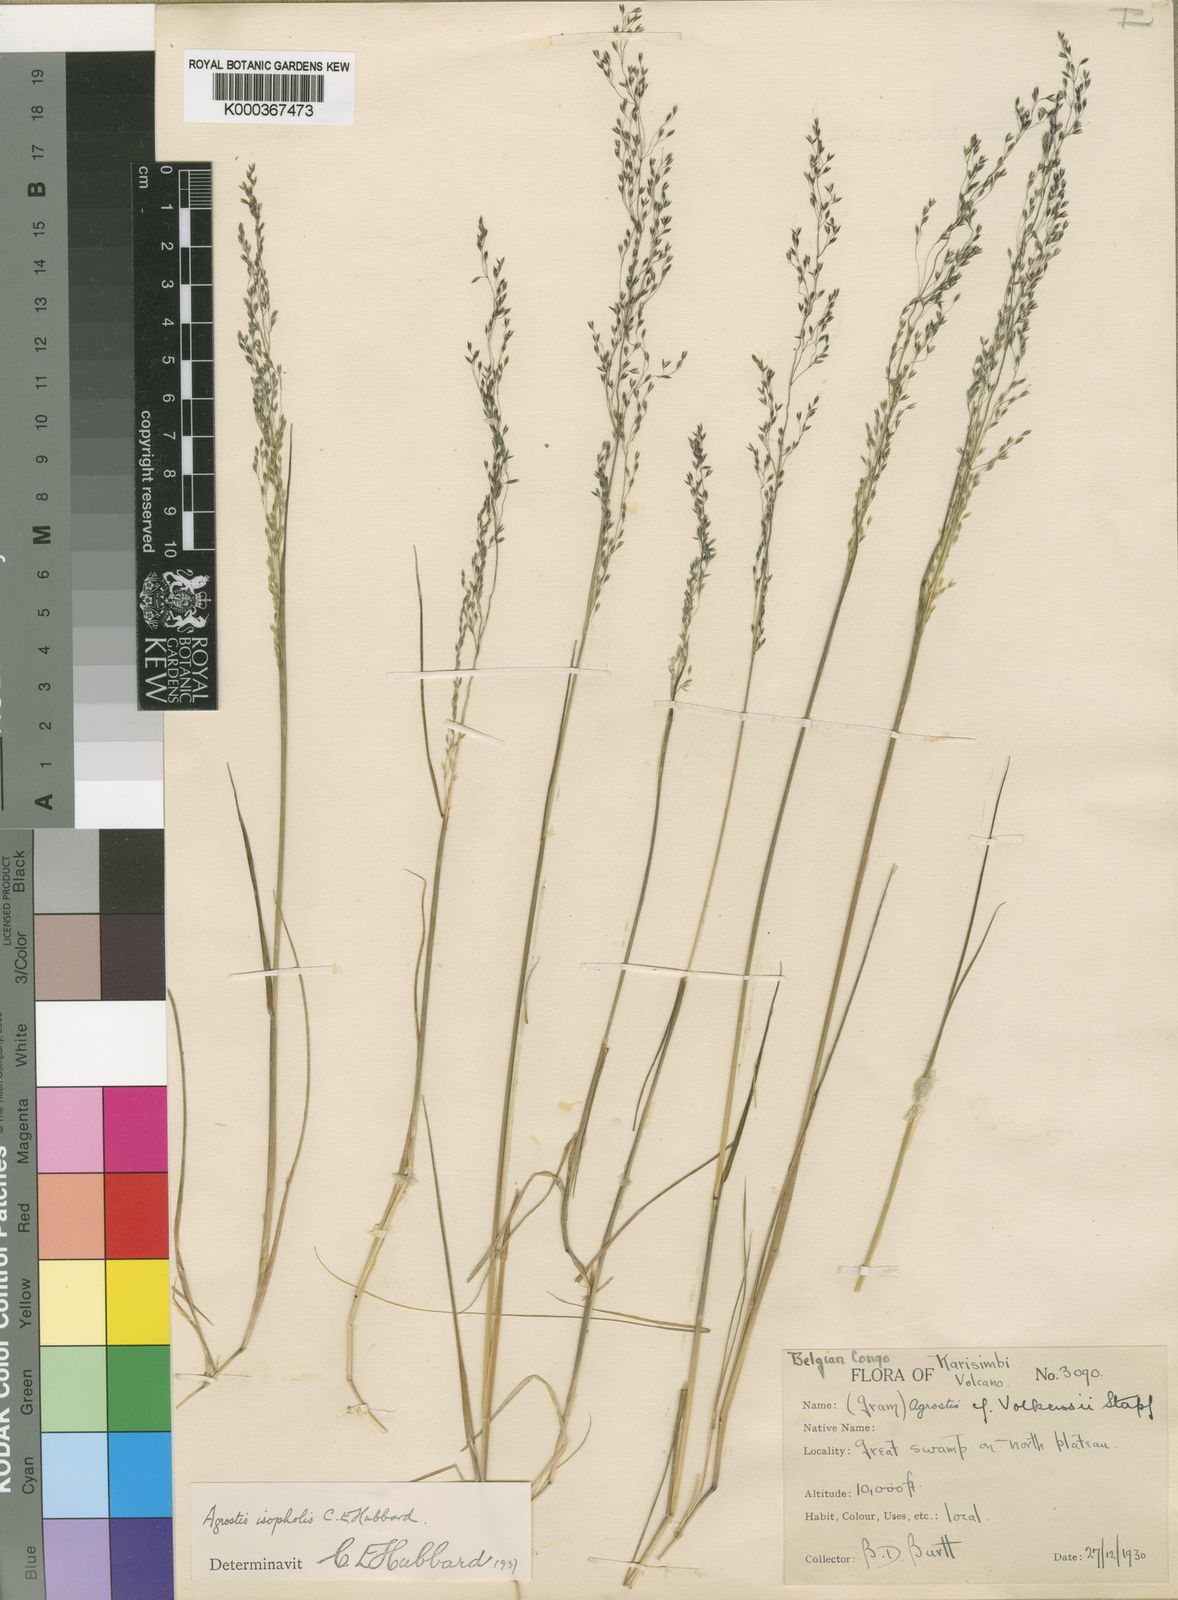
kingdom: Plantae
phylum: Tracheophyta
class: Liliopsida
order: Poales
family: Poaceae
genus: Agrostis
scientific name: Agrostis isopholis
